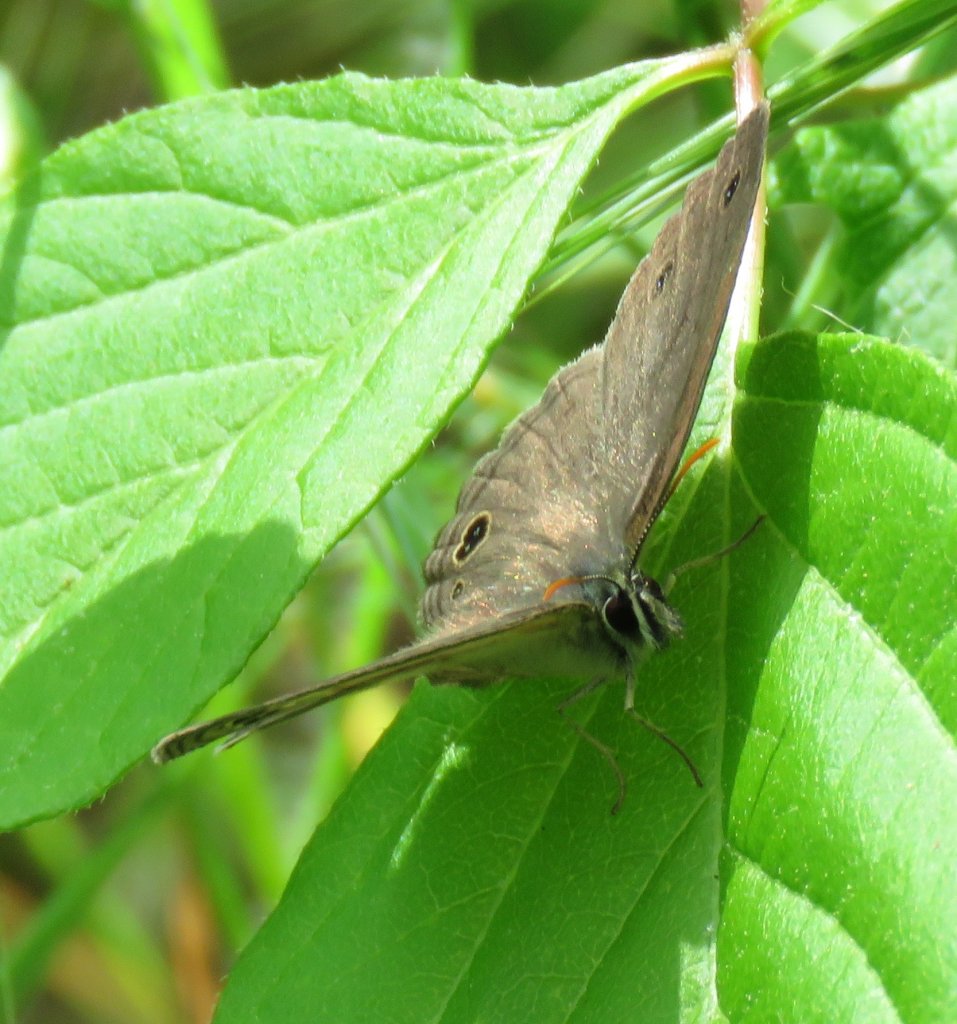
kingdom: Animalia
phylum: Arthropoda
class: Insecta
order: Lepidoptera
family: Nymphalidae
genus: Euptychia
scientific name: Euptychia cymela
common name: Little Wood Satyr
